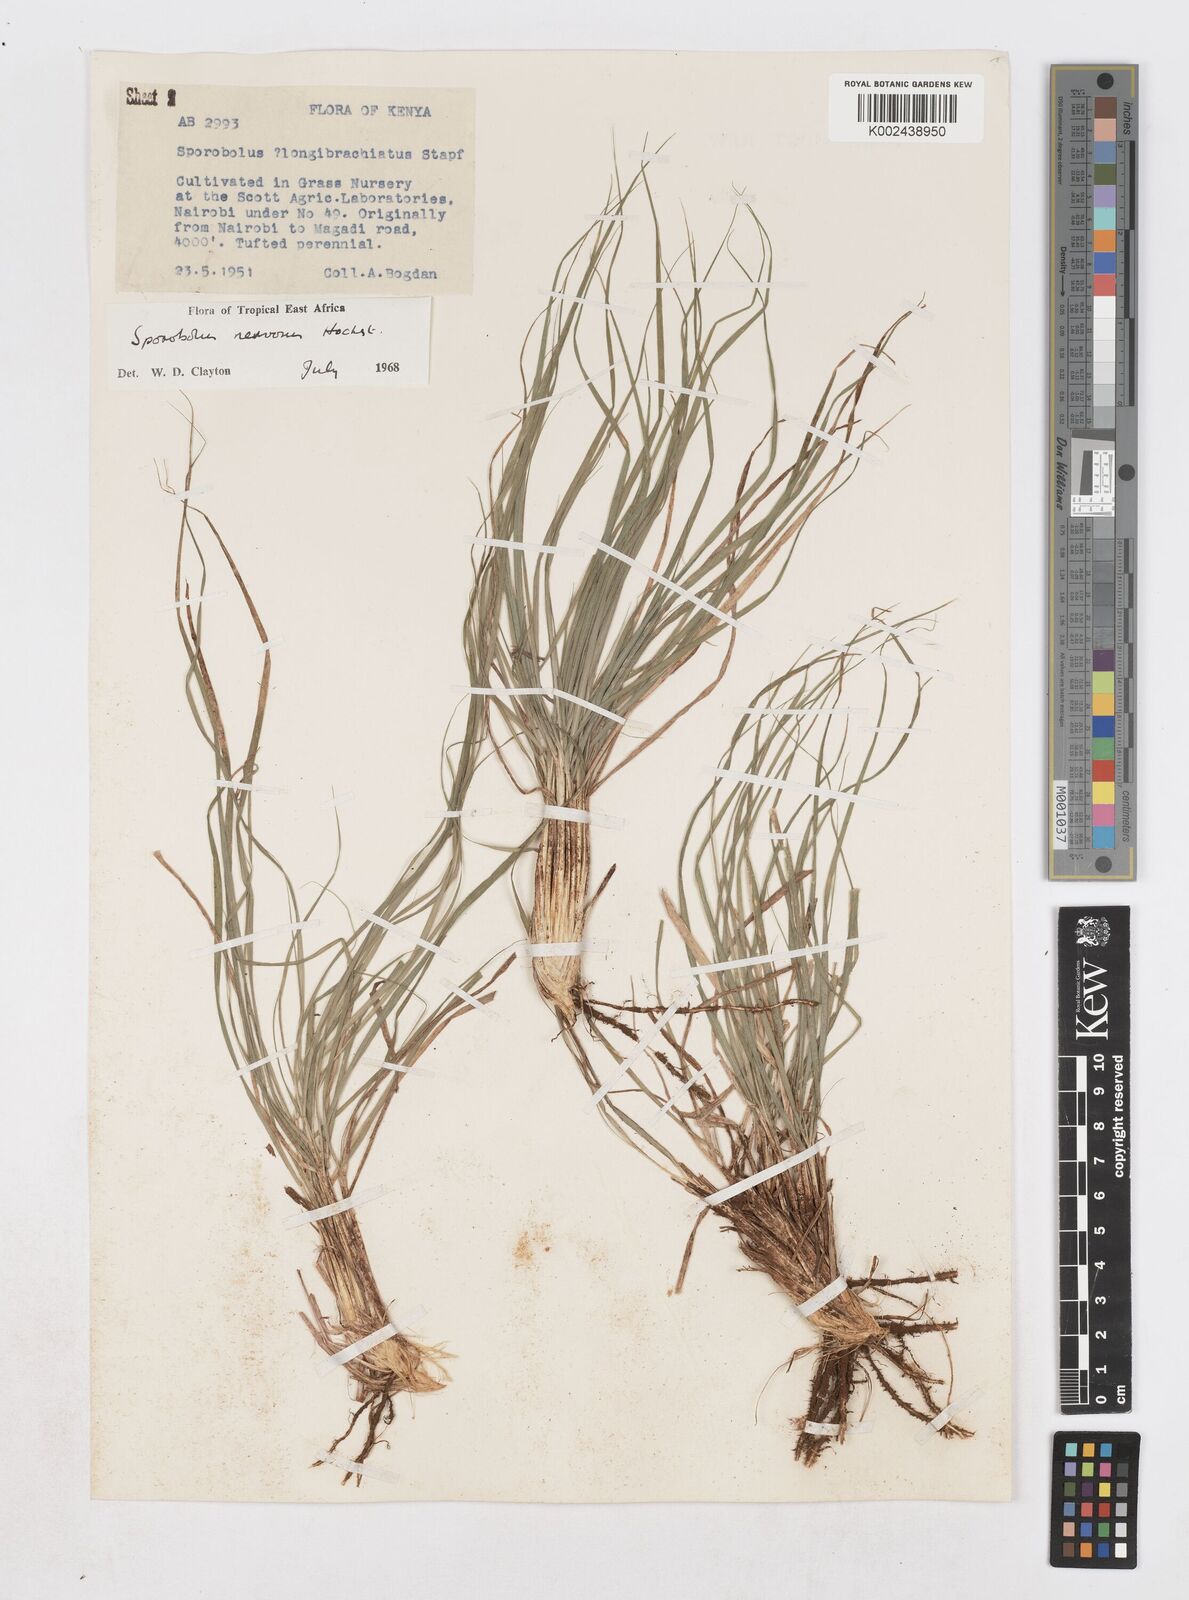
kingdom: Plantae
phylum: Tracheophyta
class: Liliopsida
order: Poales
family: Poaceae
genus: Sporobolus
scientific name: Sporobolus nervosus
